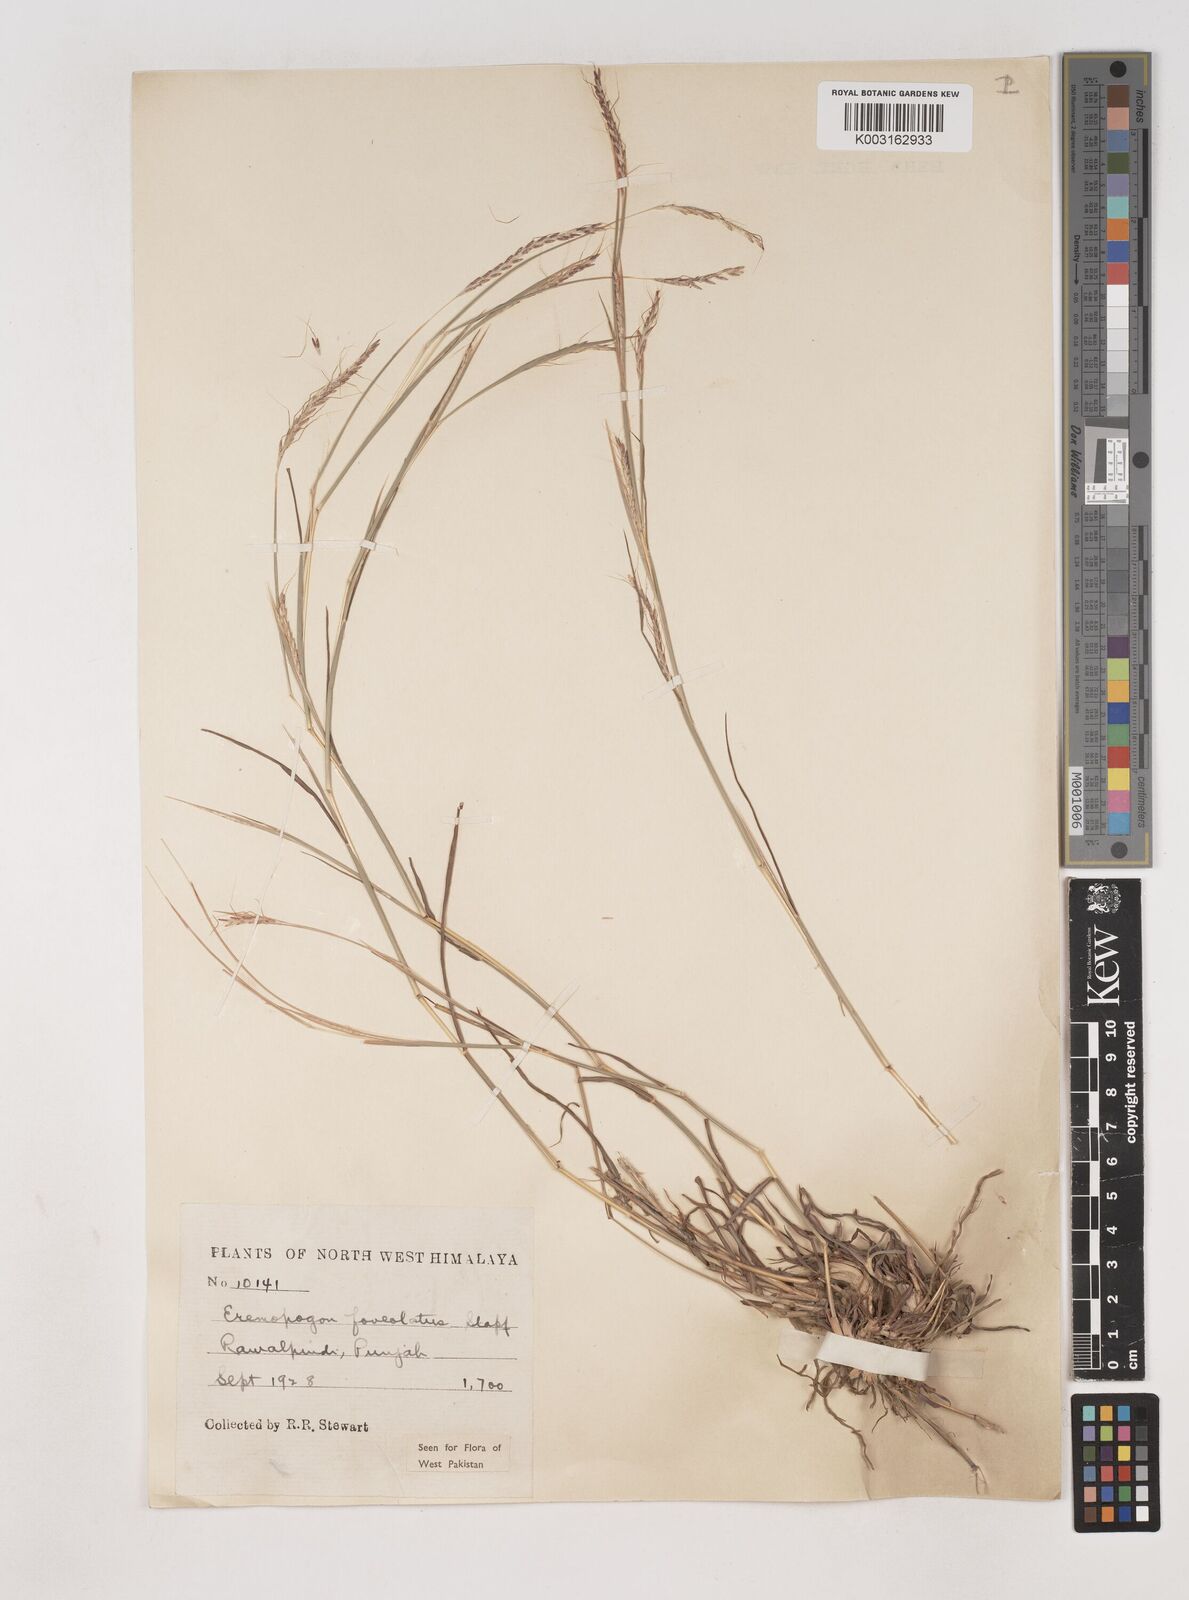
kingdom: Plantae
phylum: Tracheophyta
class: Liliopsida
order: Poales
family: Poaceae
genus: Dichanthium
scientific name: Dichanthium
